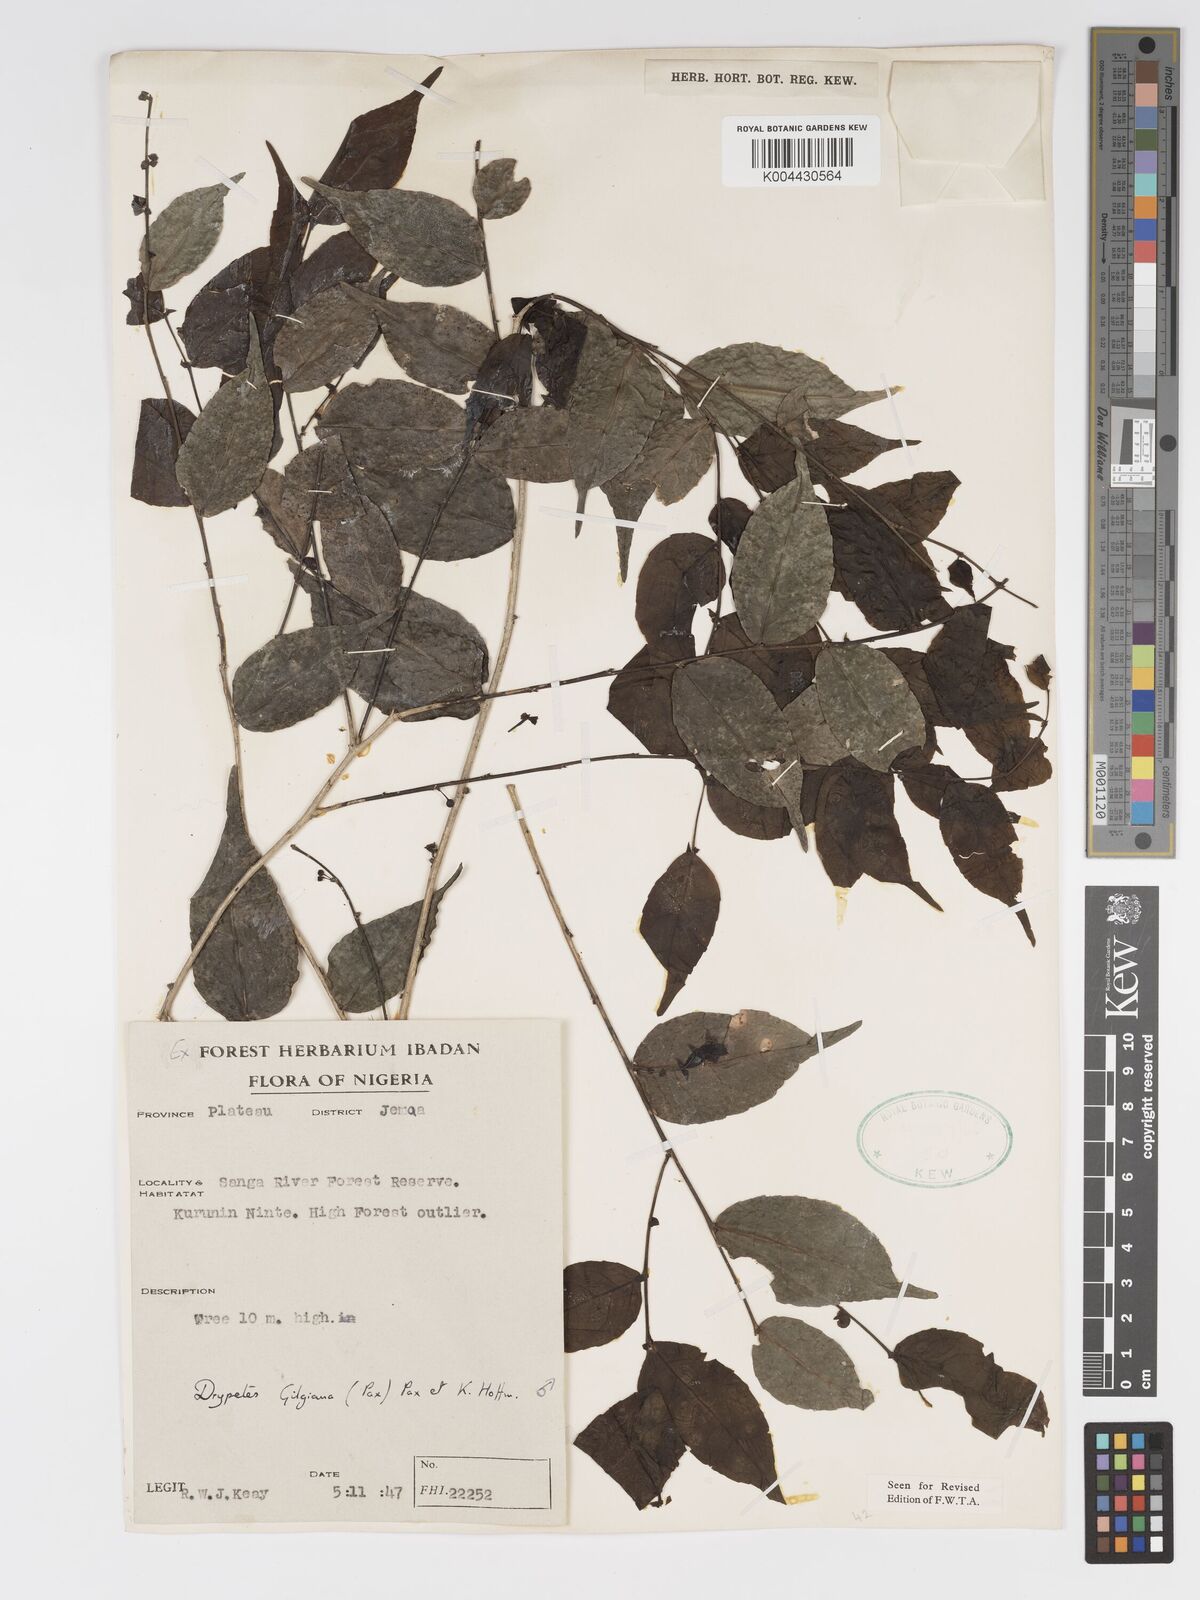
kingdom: Plantae
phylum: Tracheophyta
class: Magnoliopsida
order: Malpighiales
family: Putranjivaceae
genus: Drypetes
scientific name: Drypetes gilgiana
